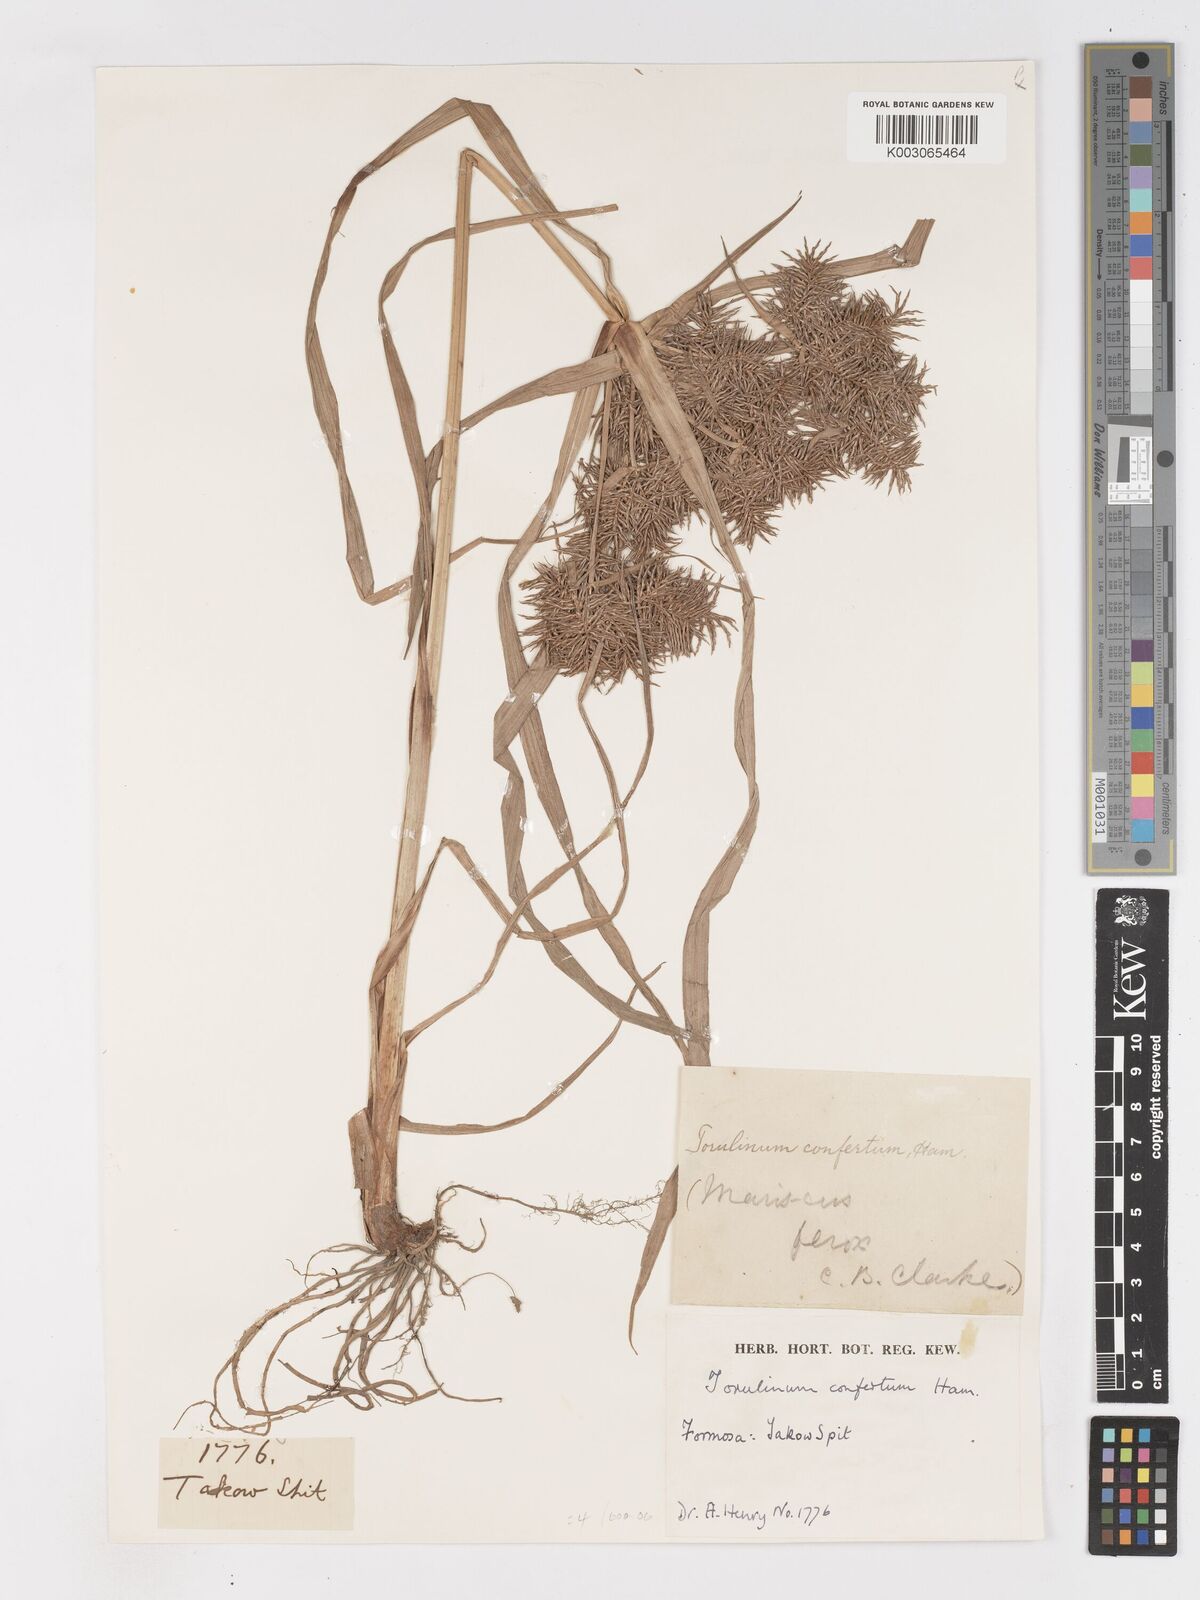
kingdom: Plantae
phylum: Tracheophyta
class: Liliopsida
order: Poales
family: Cyperaceae
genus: Cyperus
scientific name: Cyperus odoratus
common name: Fragrant flatsedge
